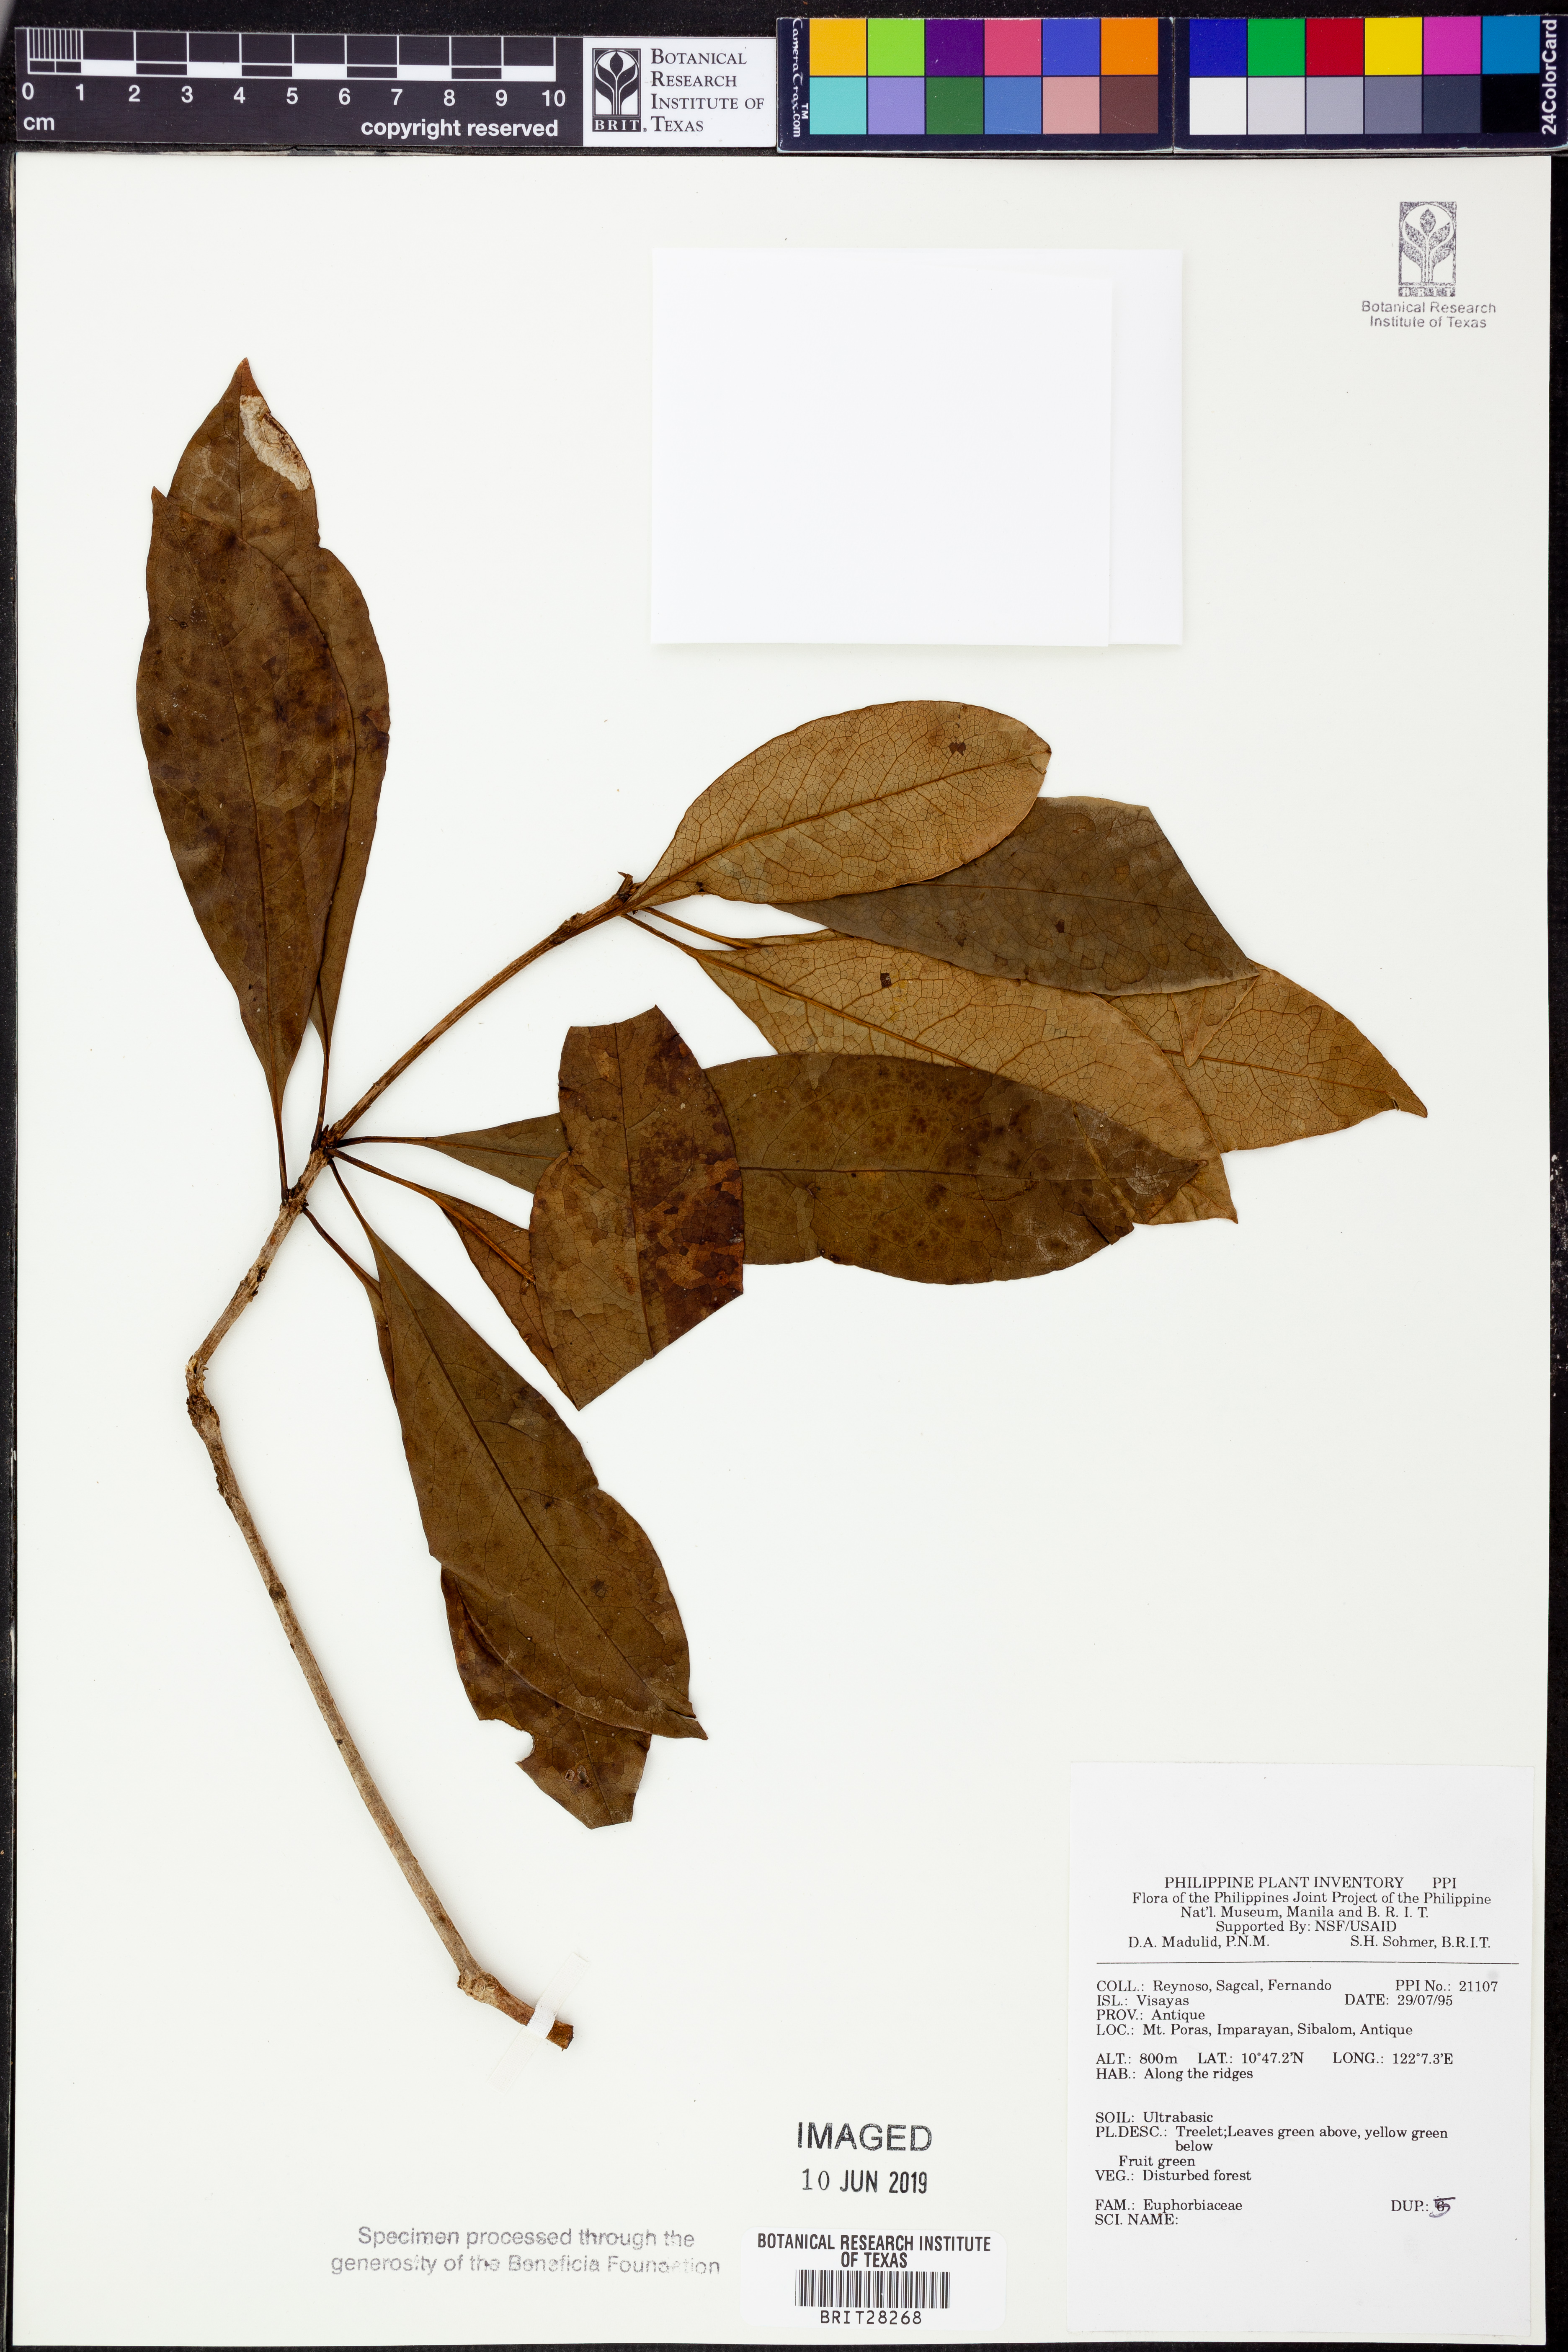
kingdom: Plantae
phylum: Tracheophyta
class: Magnoliopsida
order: Malpighiales
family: Euphorbiaceae
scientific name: Euphorbiaceae
